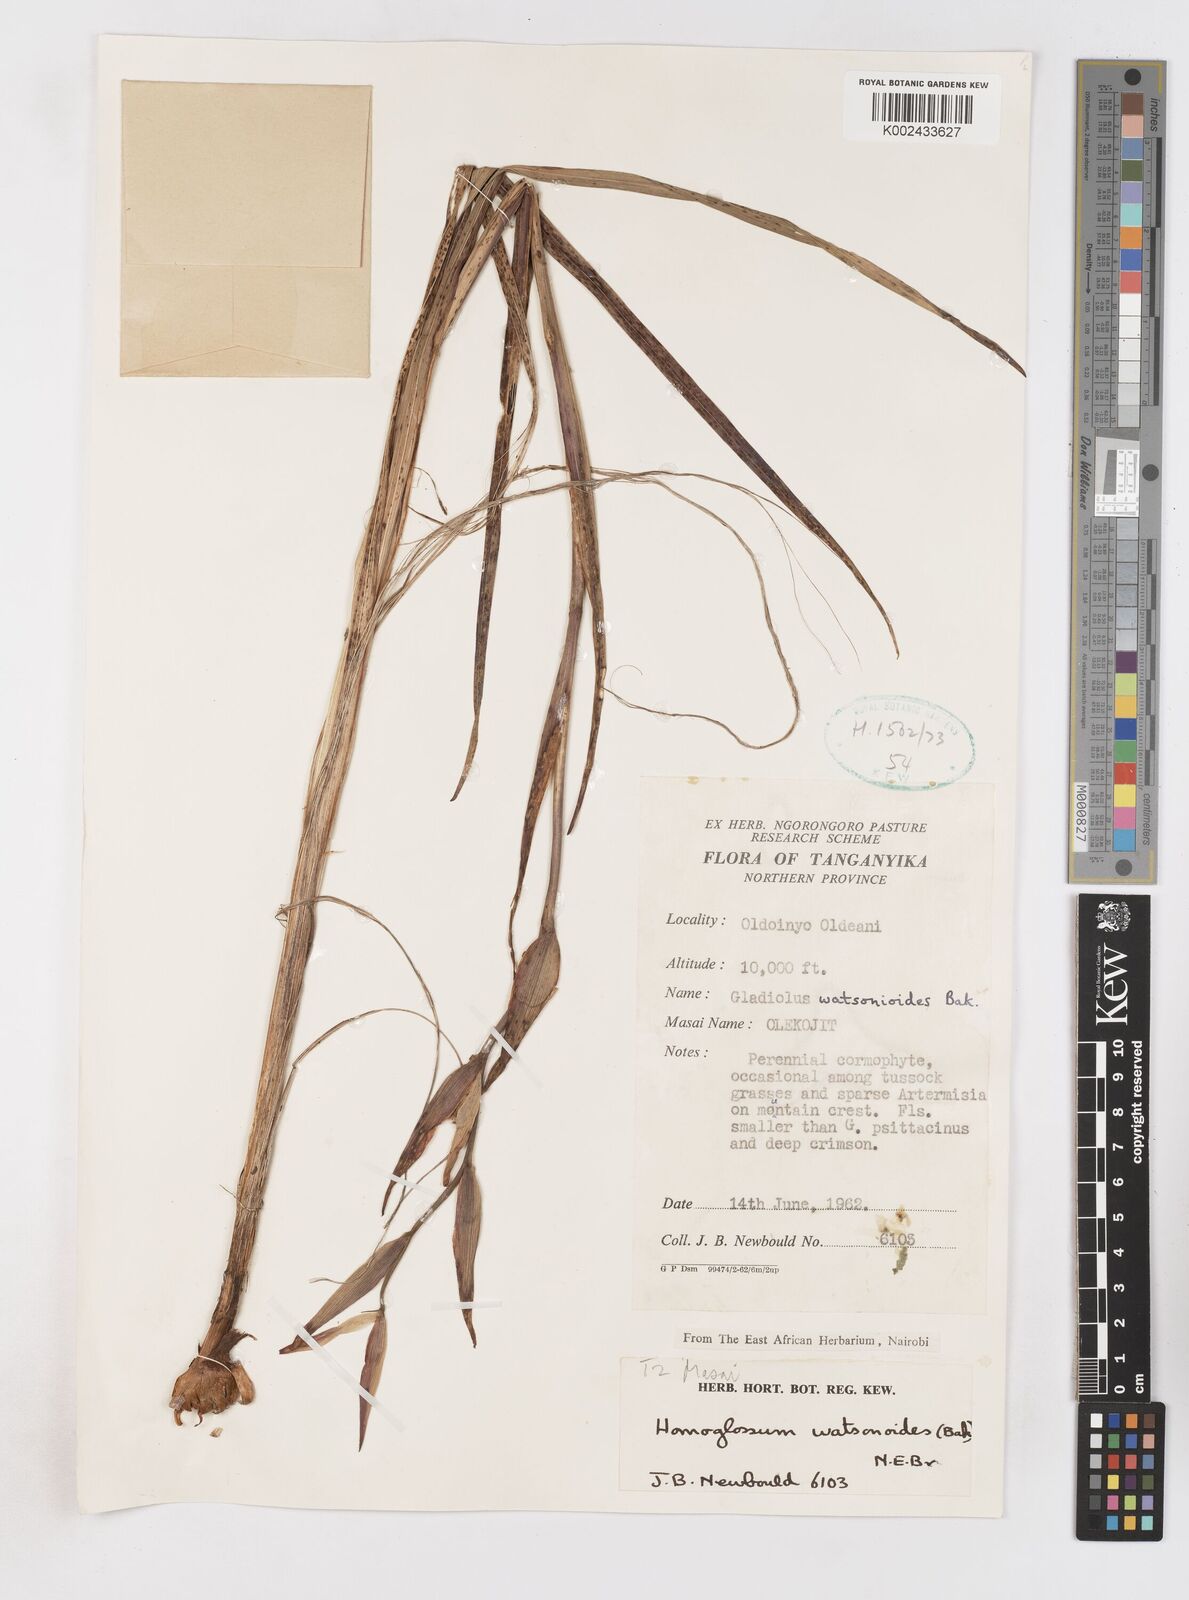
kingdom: Plantae
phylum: Tracheophyta
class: Liliopsida
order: Asparagales
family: Iridaceae
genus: Gladiolus
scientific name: Gladiolus watsonioides
